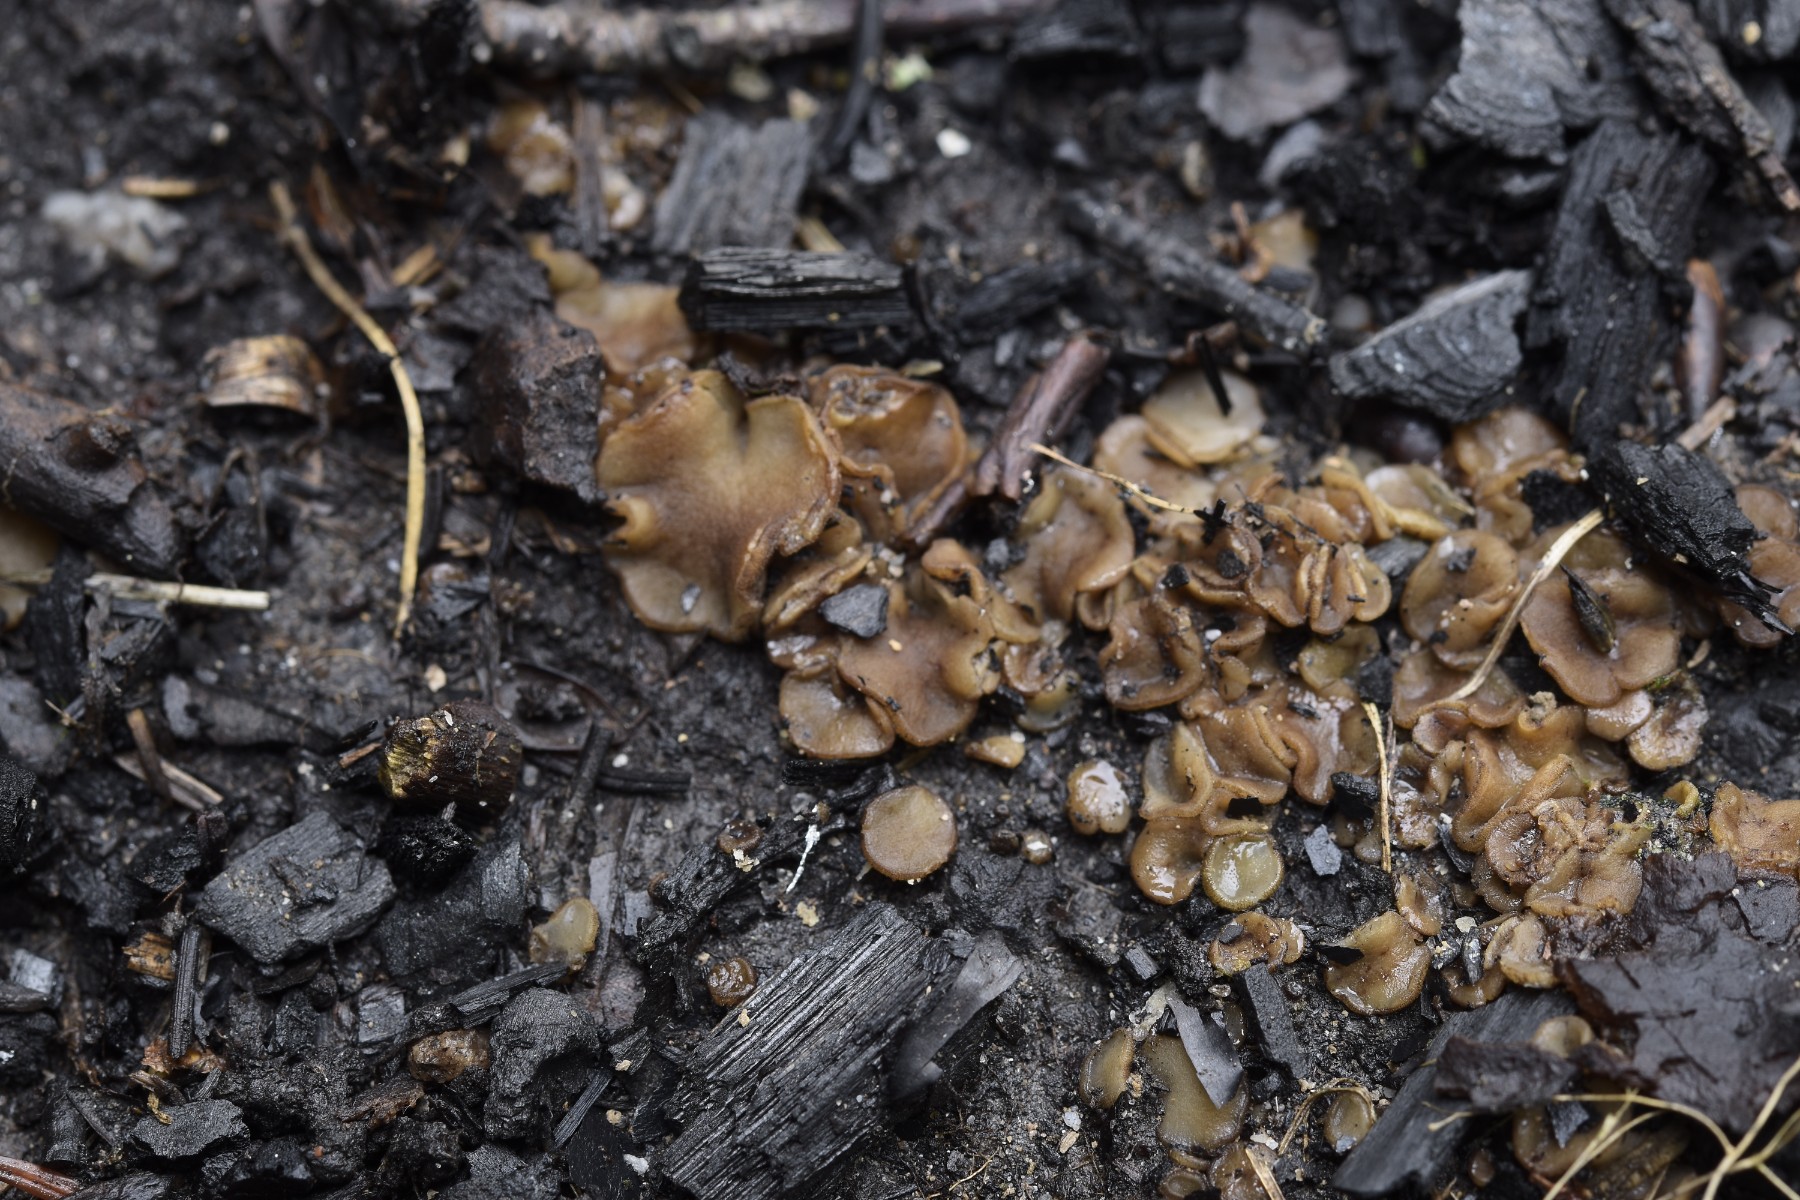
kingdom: Fungi
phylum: Ascomycota
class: Pezizomycetes
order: Pezizales
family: Pyronemataceae
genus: Sphaerosporella
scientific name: Sphaerosporella brunnea
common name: rundsporet børstebæger
